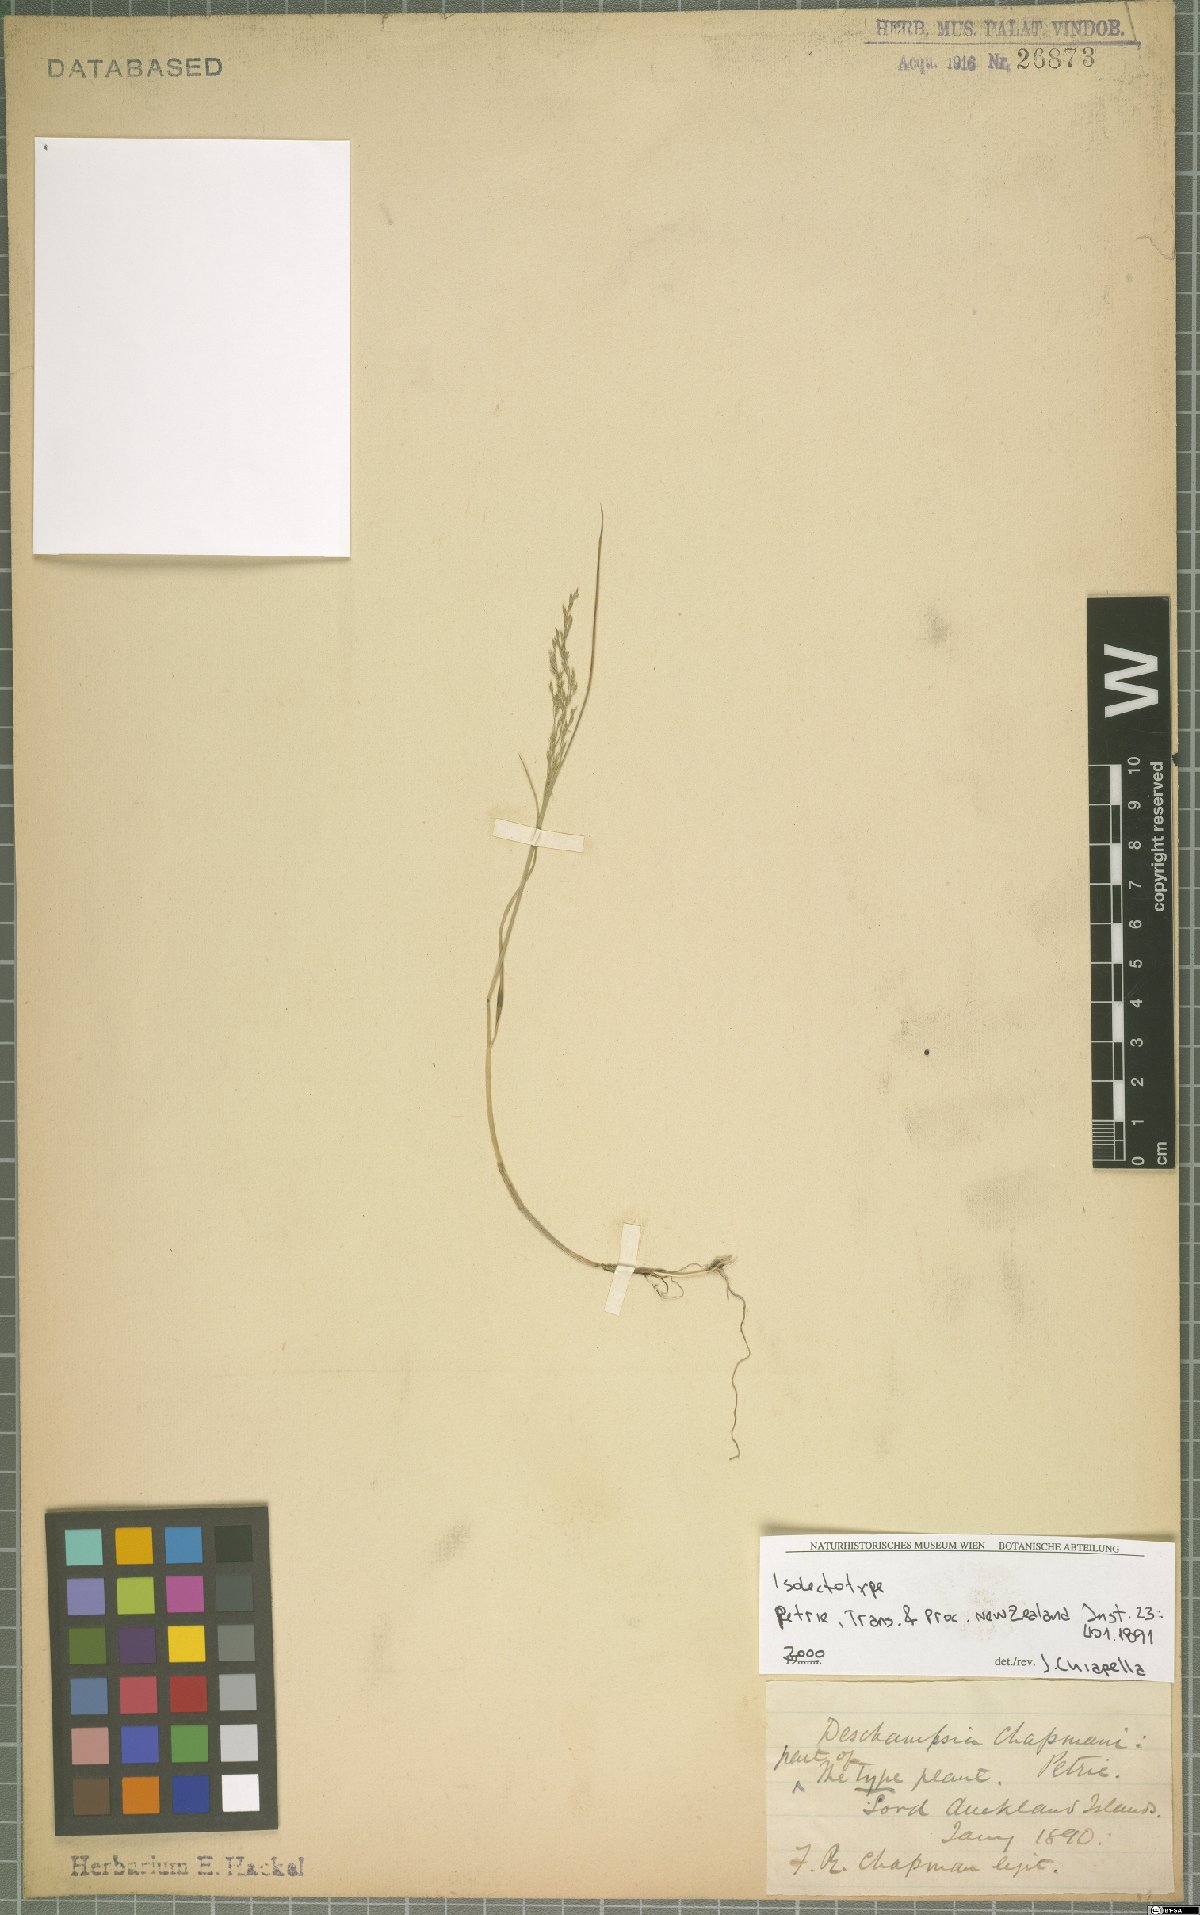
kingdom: Plantae
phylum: Tracheophyta
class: Liliopsida
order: Poales
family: Poaceae
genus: Deschampsia
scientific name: Deschampsia chapmanii
